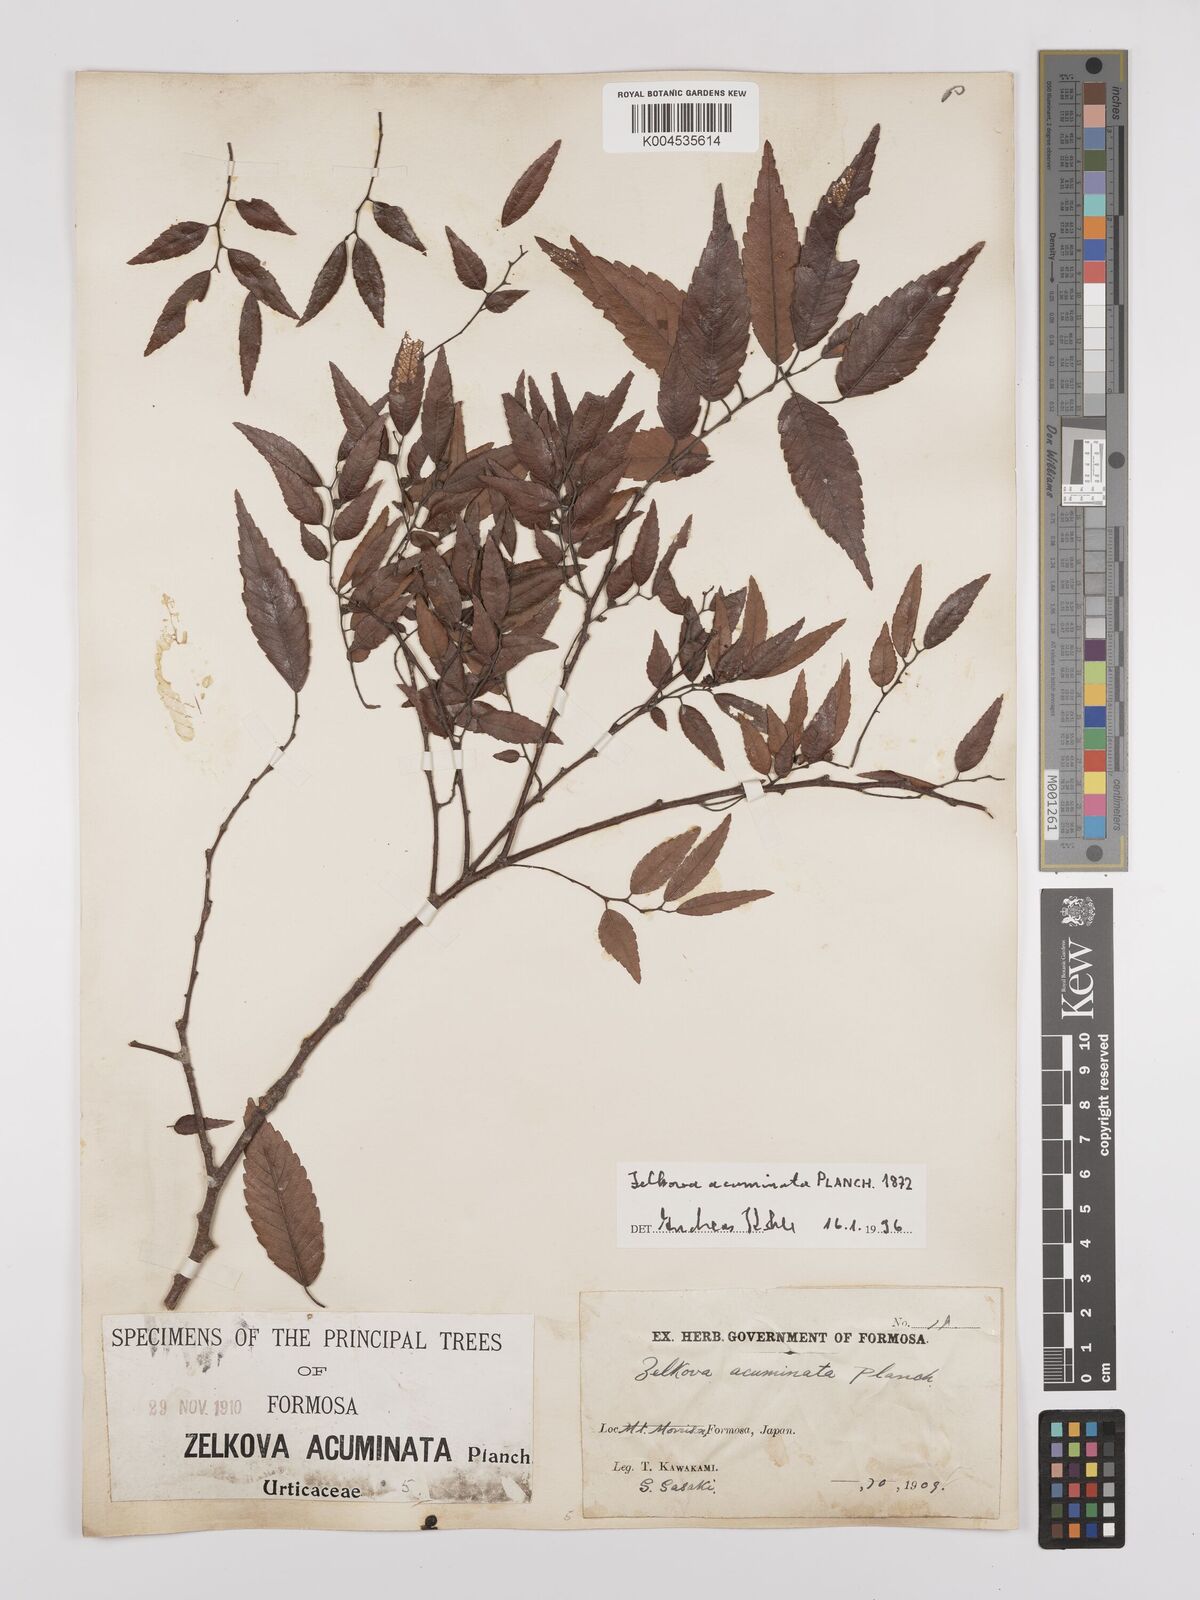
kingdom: Plantae
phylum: Tracheophyta
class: Magnoliopsida
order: Rosales
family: Ulmaceae
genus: Zelkova
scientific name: Zelkova serrata
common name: Japanese zelkova
